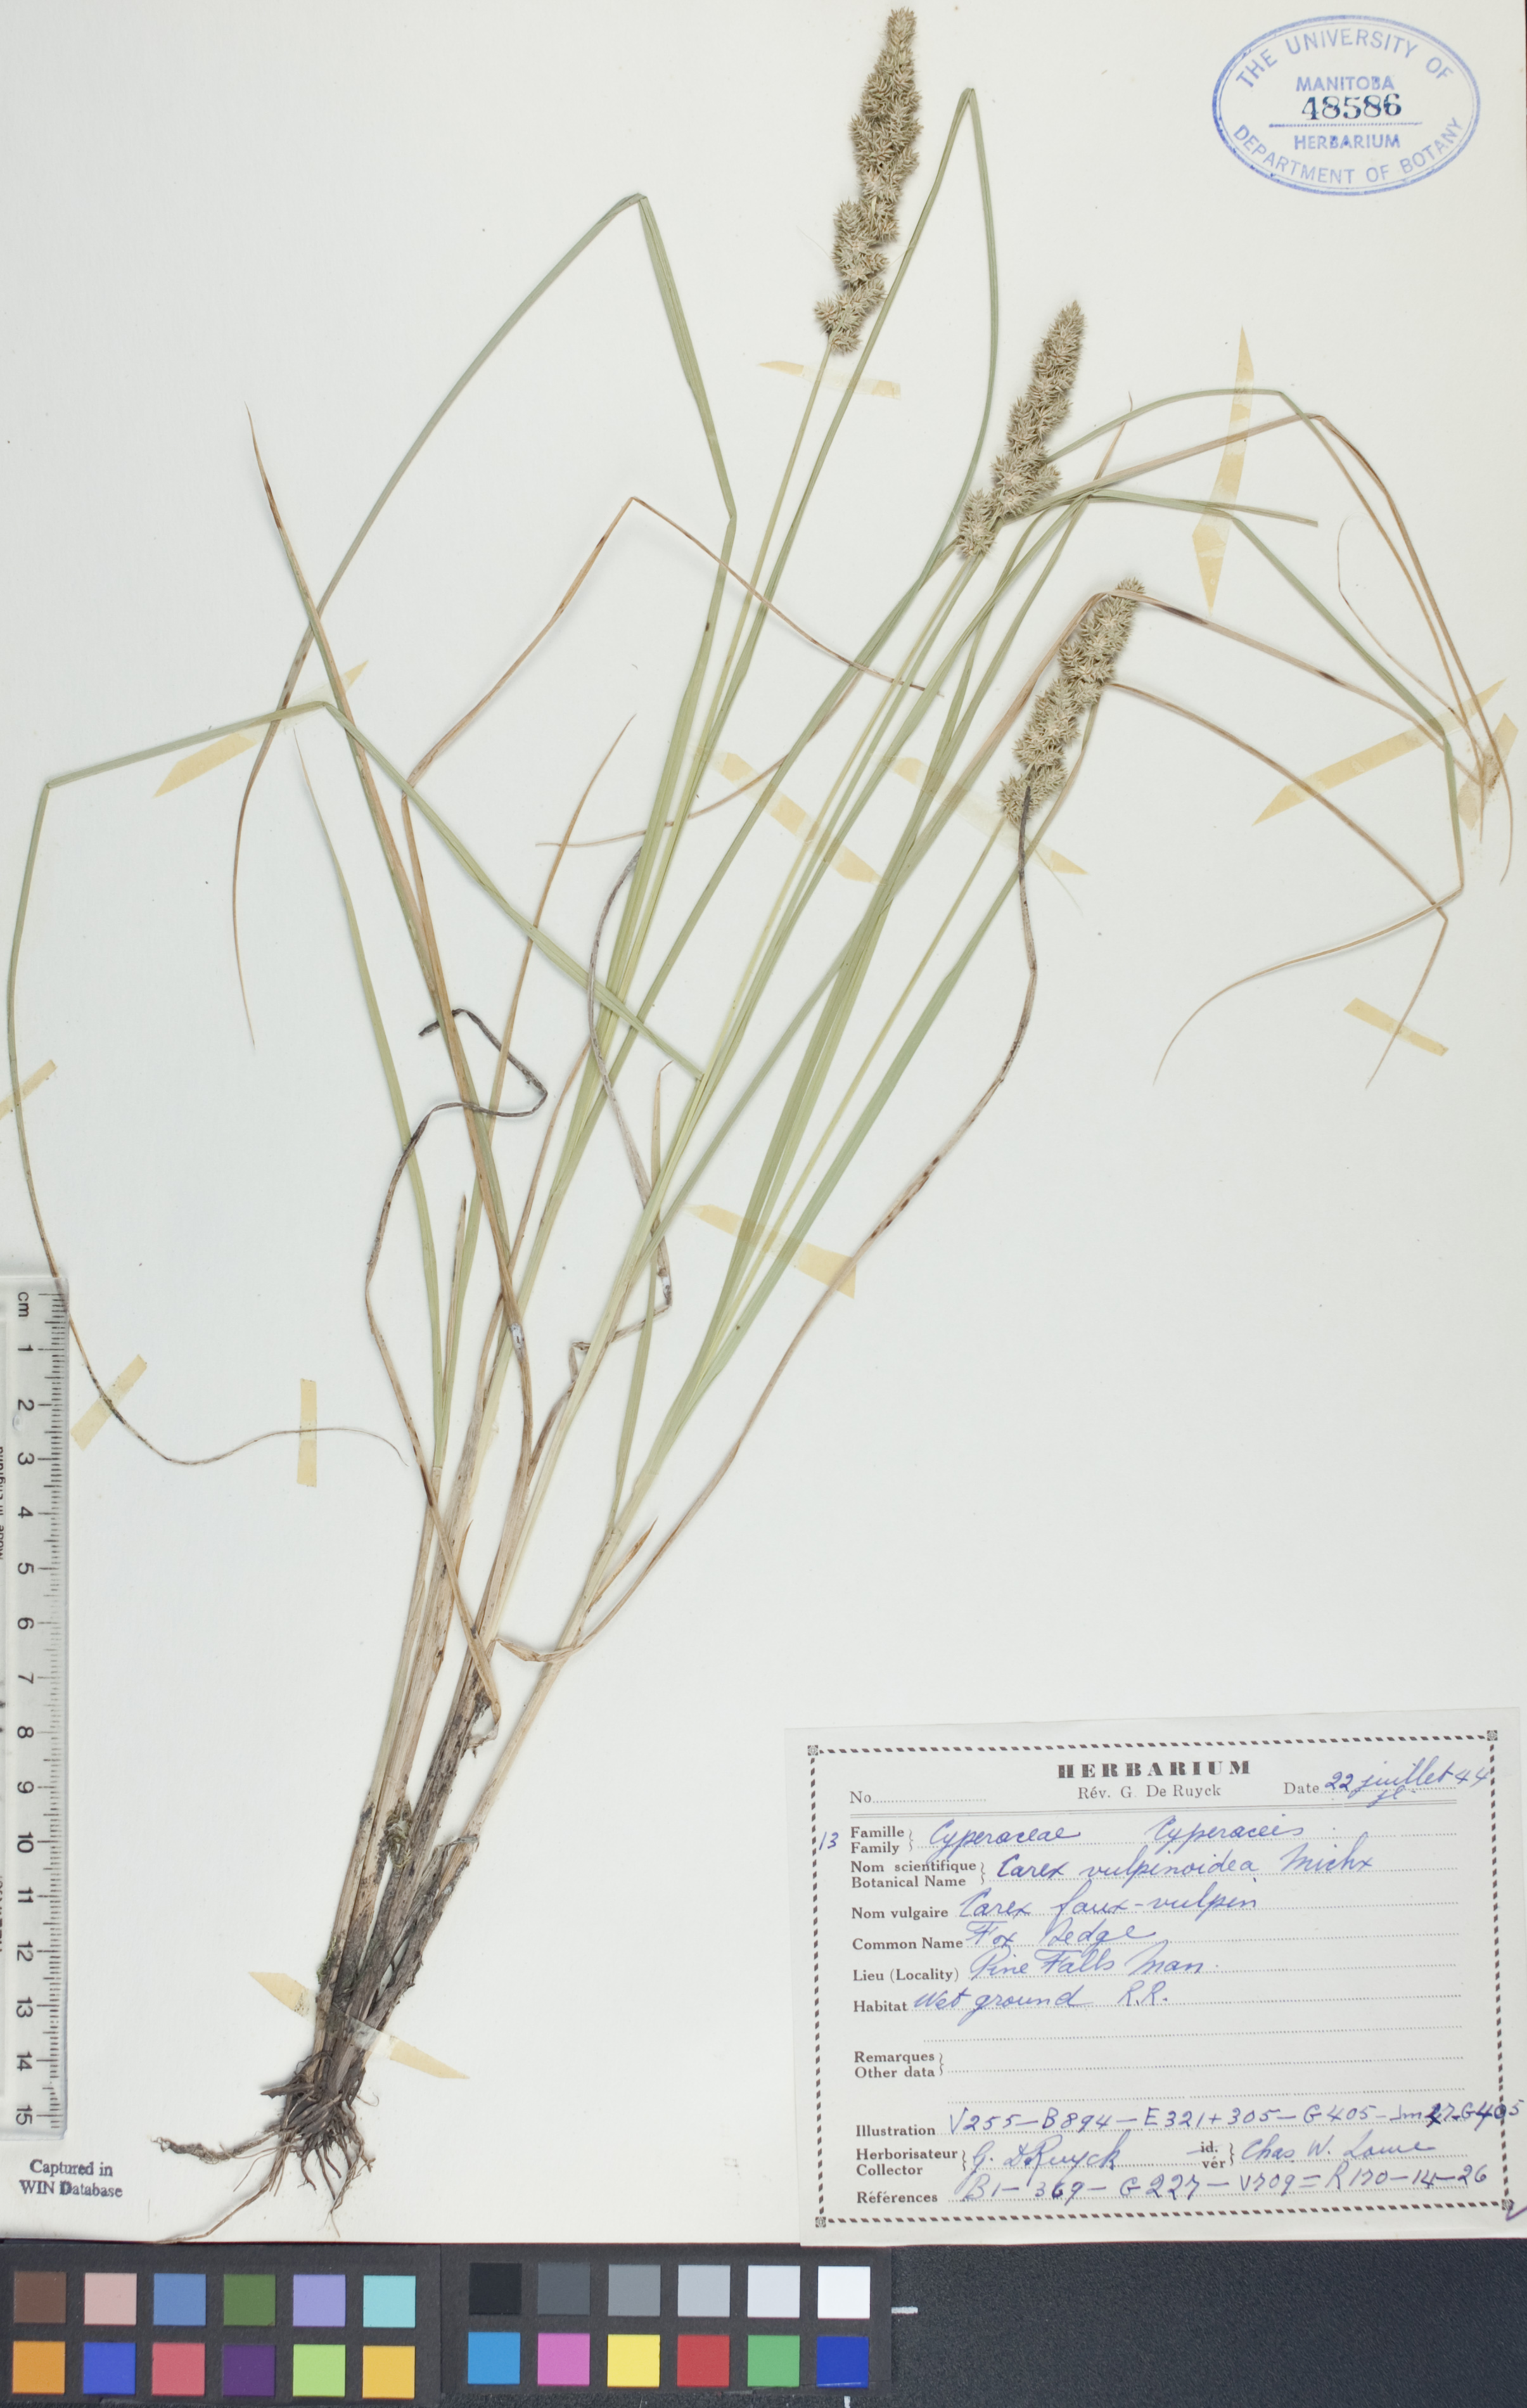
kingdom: Plantae
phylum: Tracheophyta
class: Liliopsida
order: Poales
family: Cyperaceae
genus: Carex
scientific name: Carex vulpinoidea
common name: American fox-sedge
